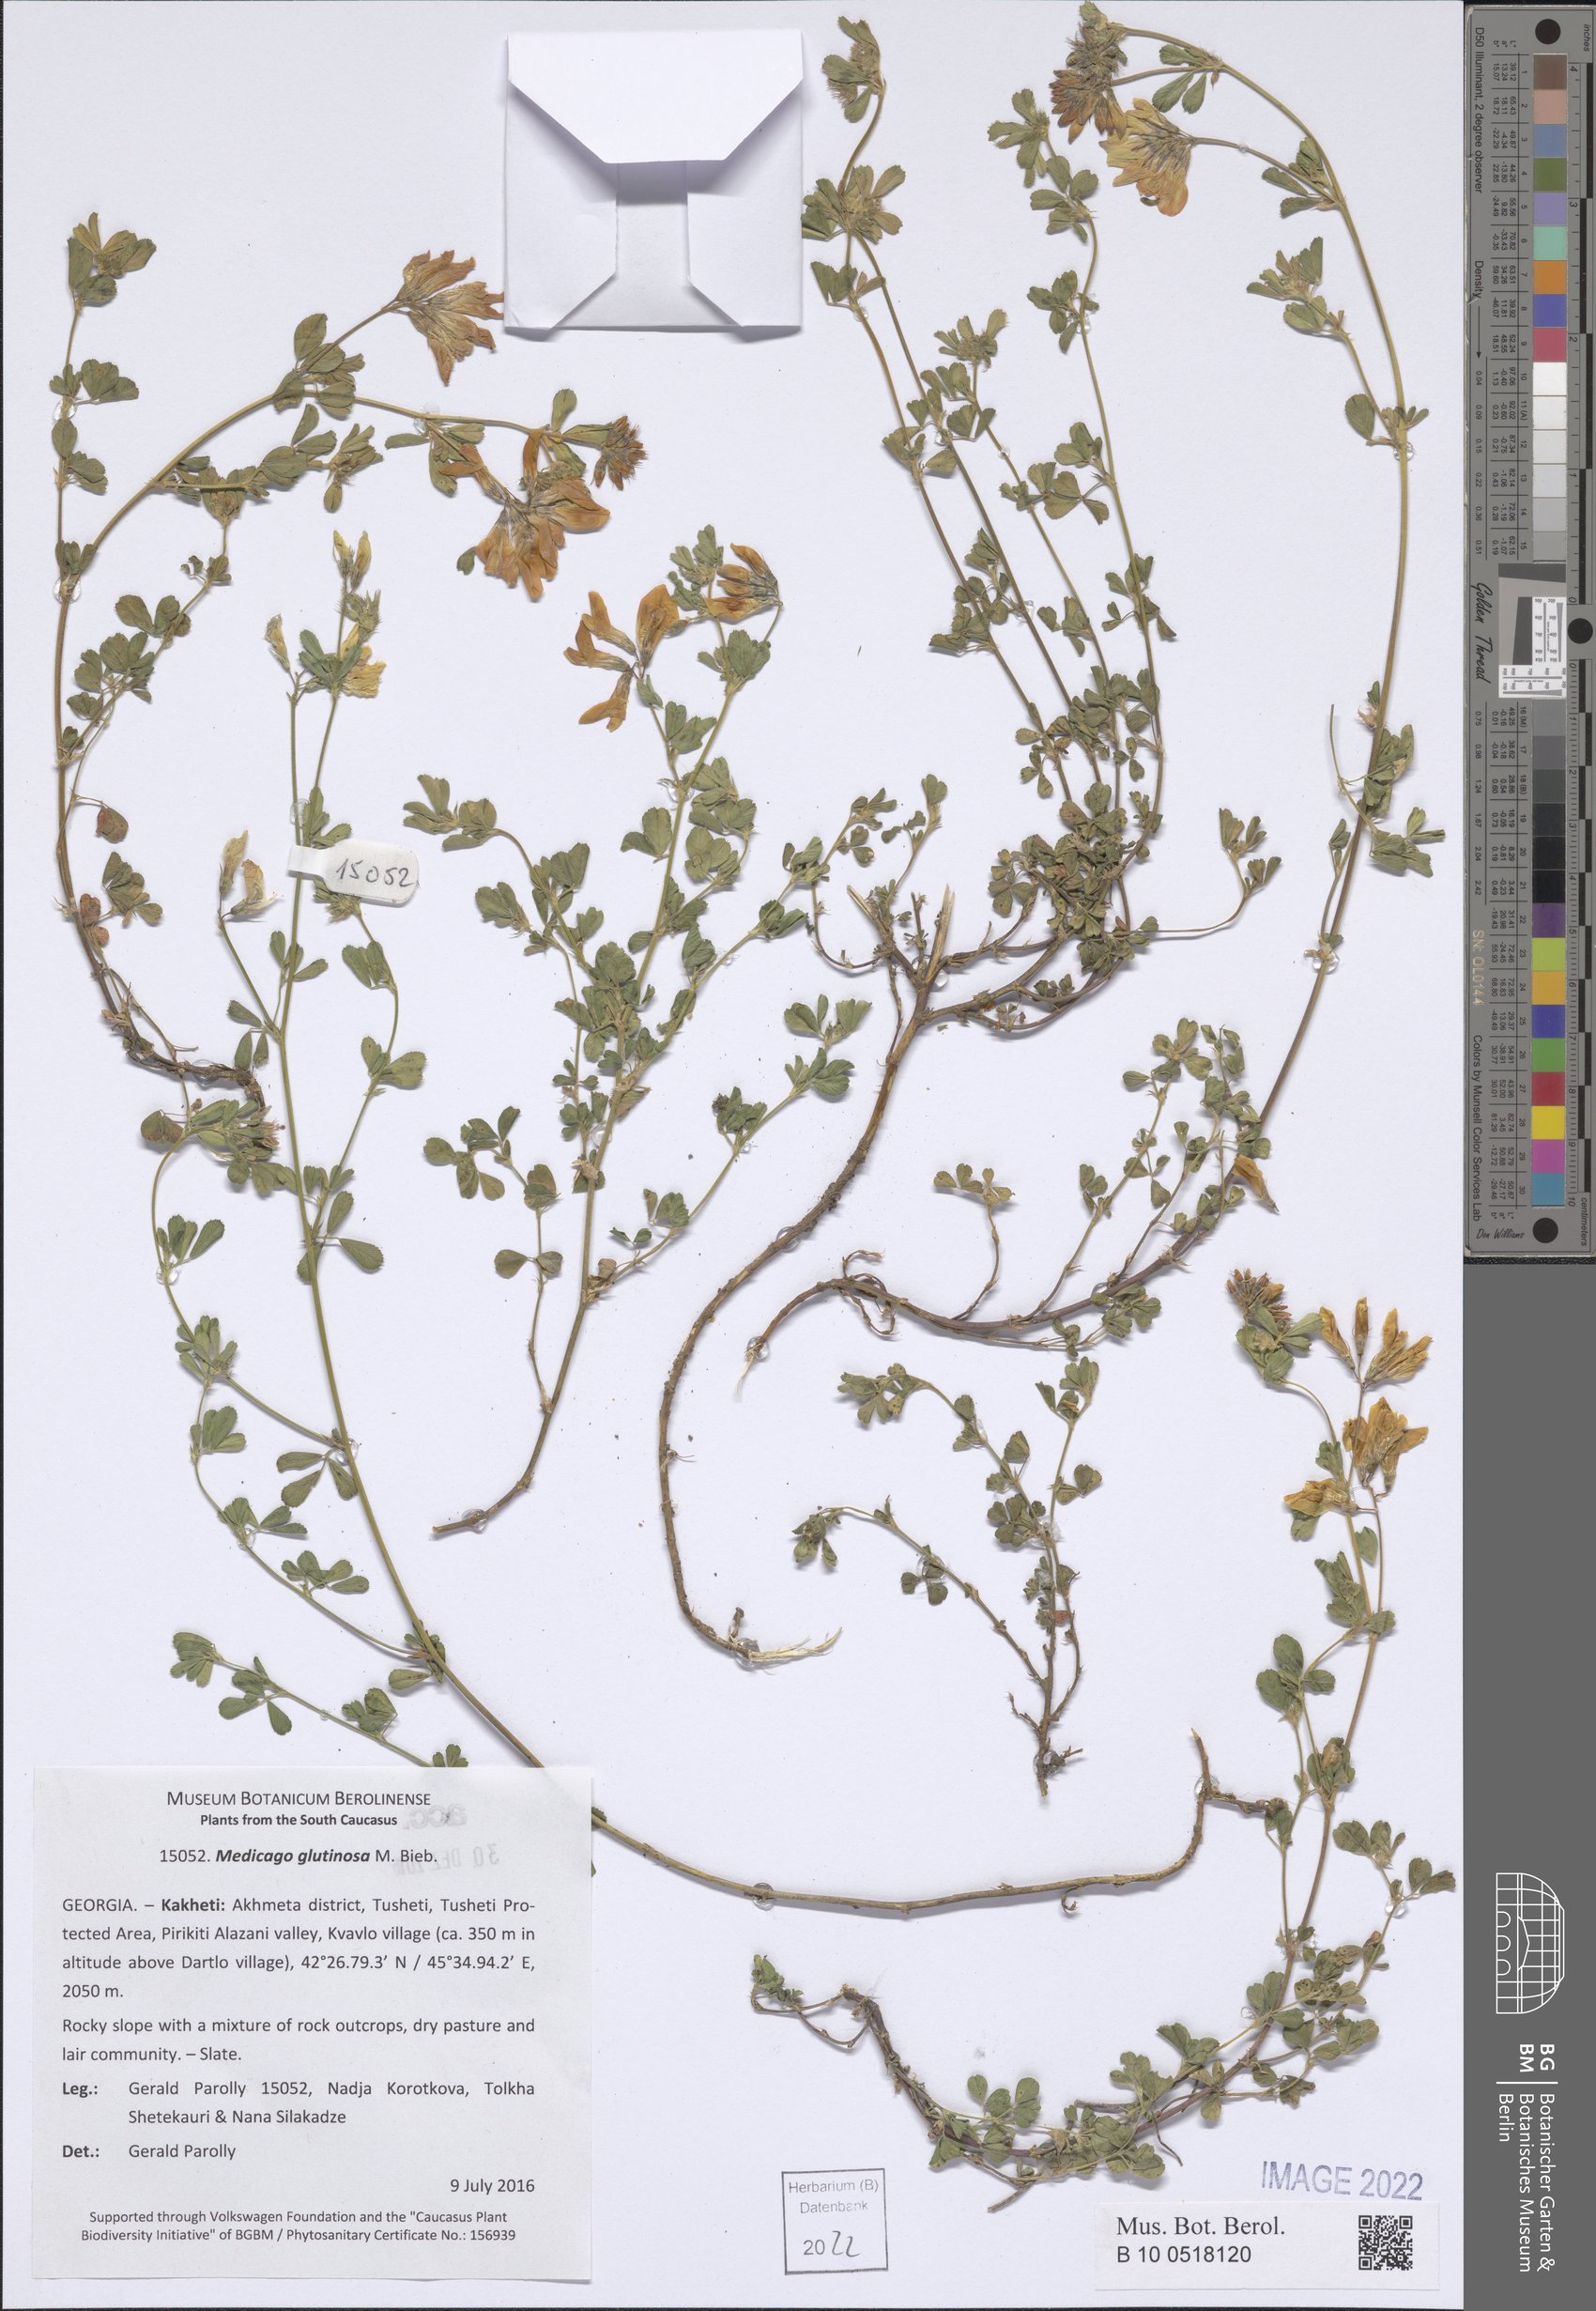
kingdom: Plantae
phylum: Tracheophyta
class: Magnoliopsida
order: Fabales
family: Fabaceae
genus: Medicago
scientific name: Medicago sativa
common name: Alfalfa
